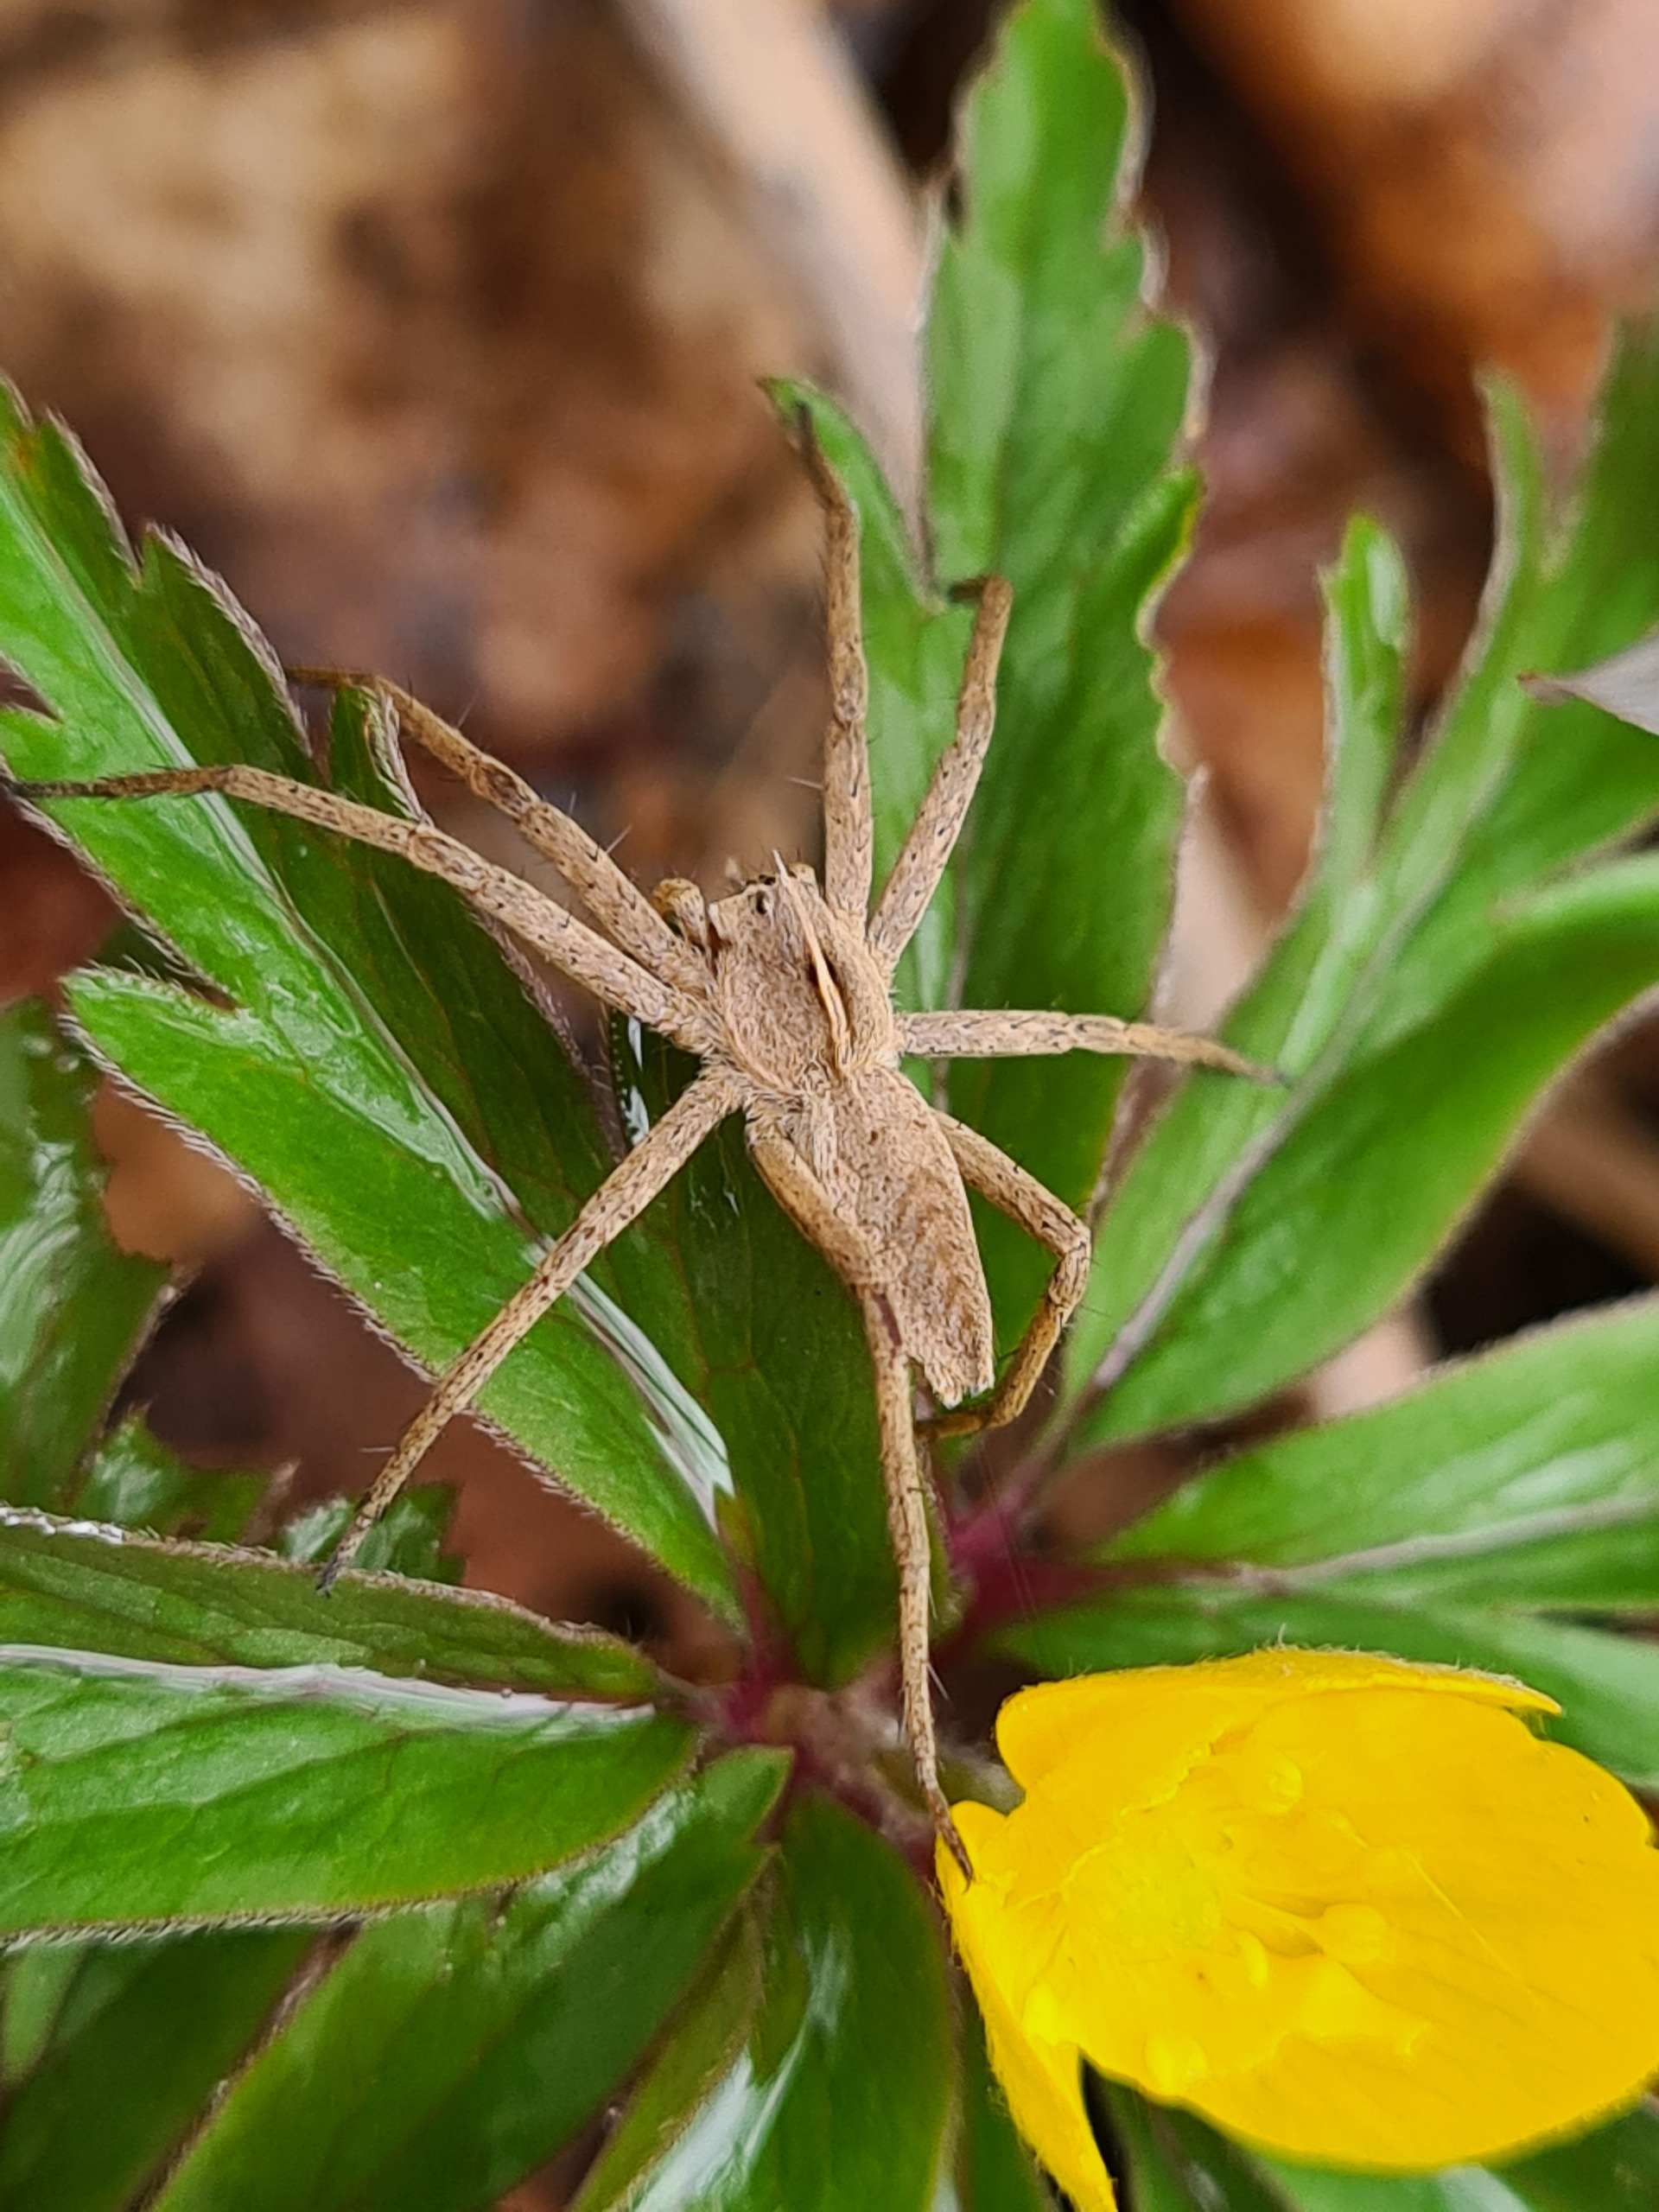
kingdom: Animalia
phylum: Arthropoda
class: Arachnida
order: Araneae
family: Pisauridae
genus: Pisaura
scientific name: Pisaura mirabilis
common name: Almindelig rovedderkop
